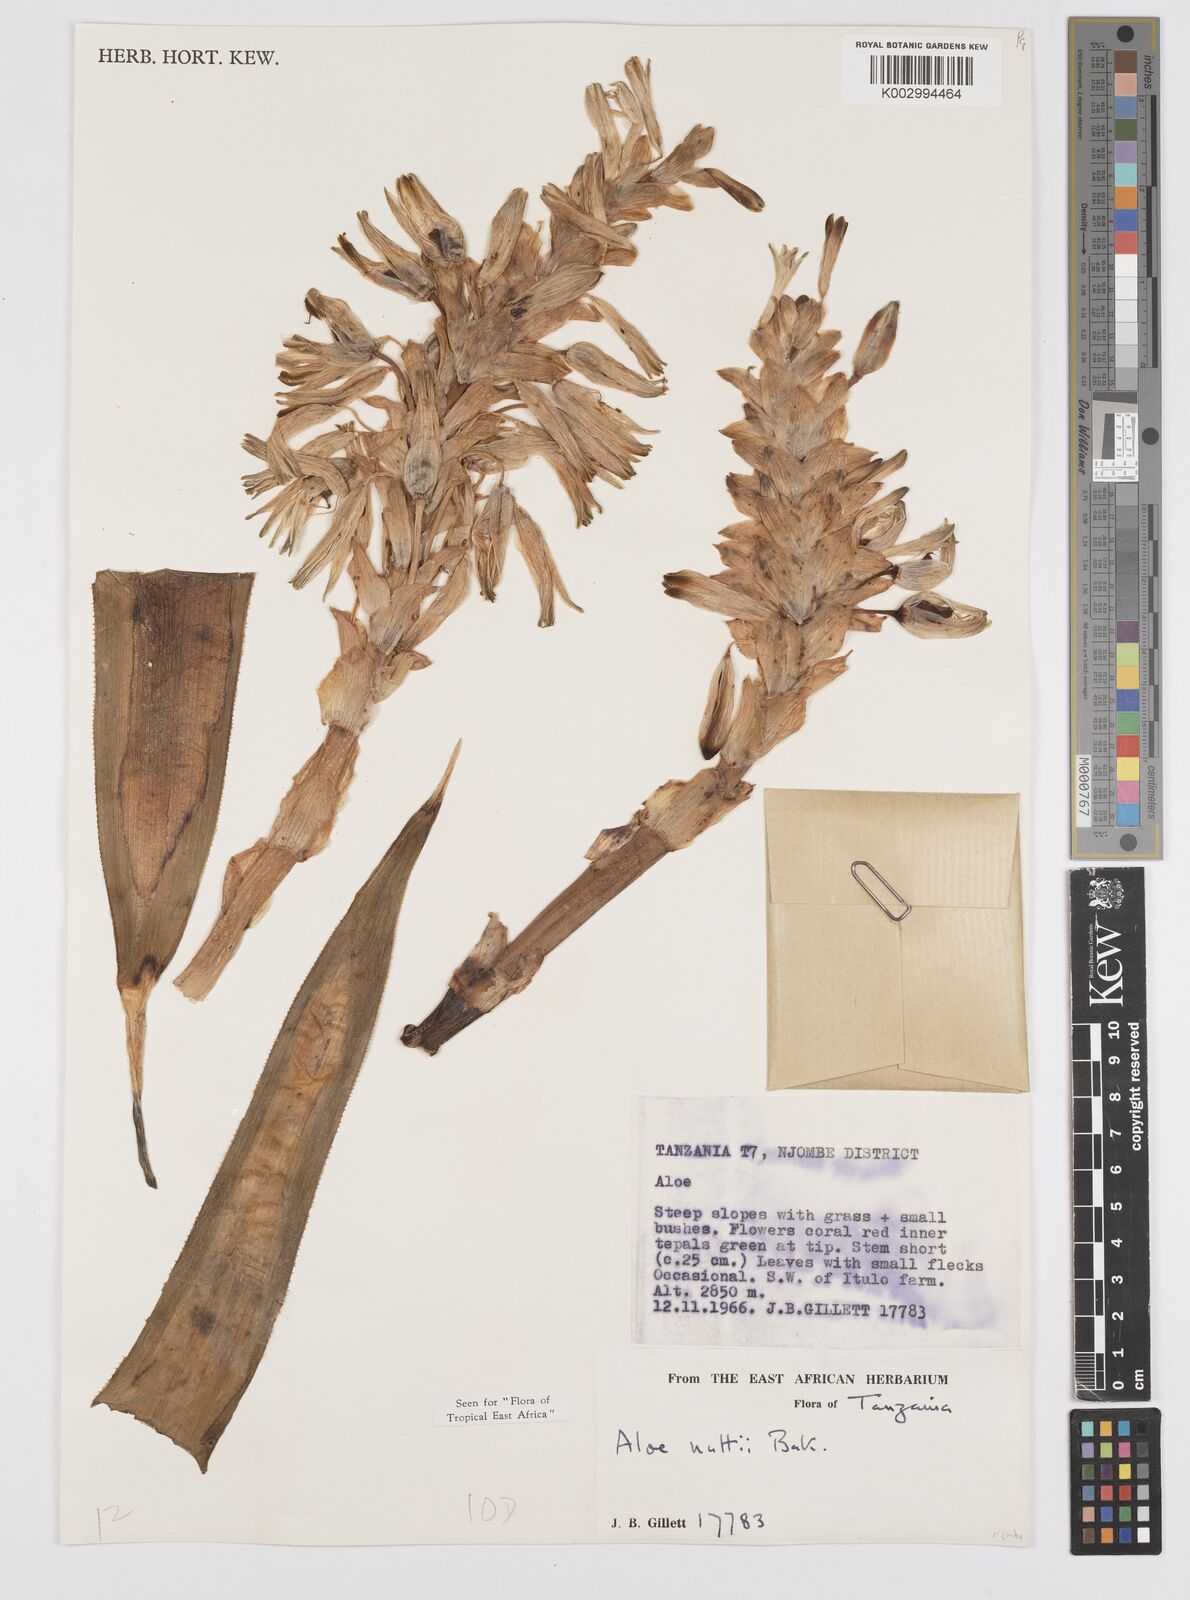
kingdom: Plantae
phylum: Tracheophyta
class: Liliopsida
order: Asparagales
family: Asphodelaceae
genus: Aloe
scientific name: Aloe nuttii
